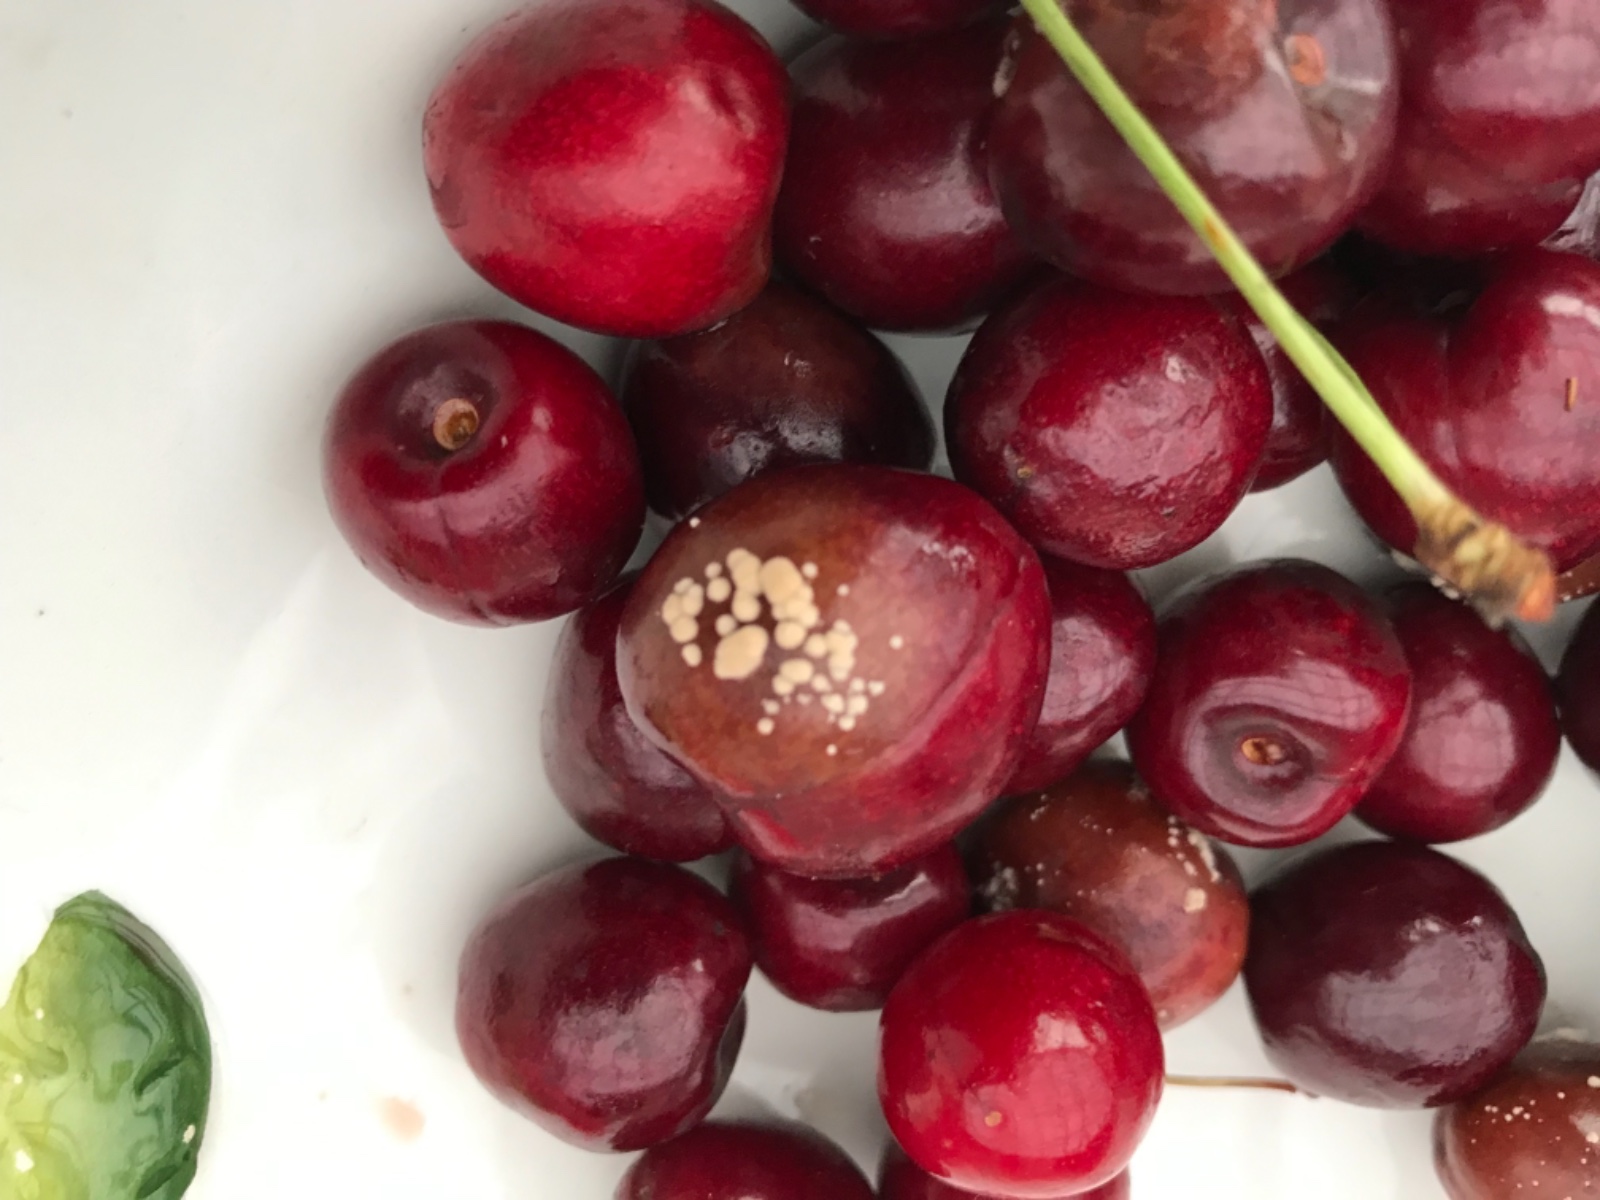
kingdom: Fungi
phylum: Ascomycota
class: Leotiomycetes
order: Helotiales
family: Sclerotiniaceae
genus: Monilinia
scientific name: Monilinia laxa
